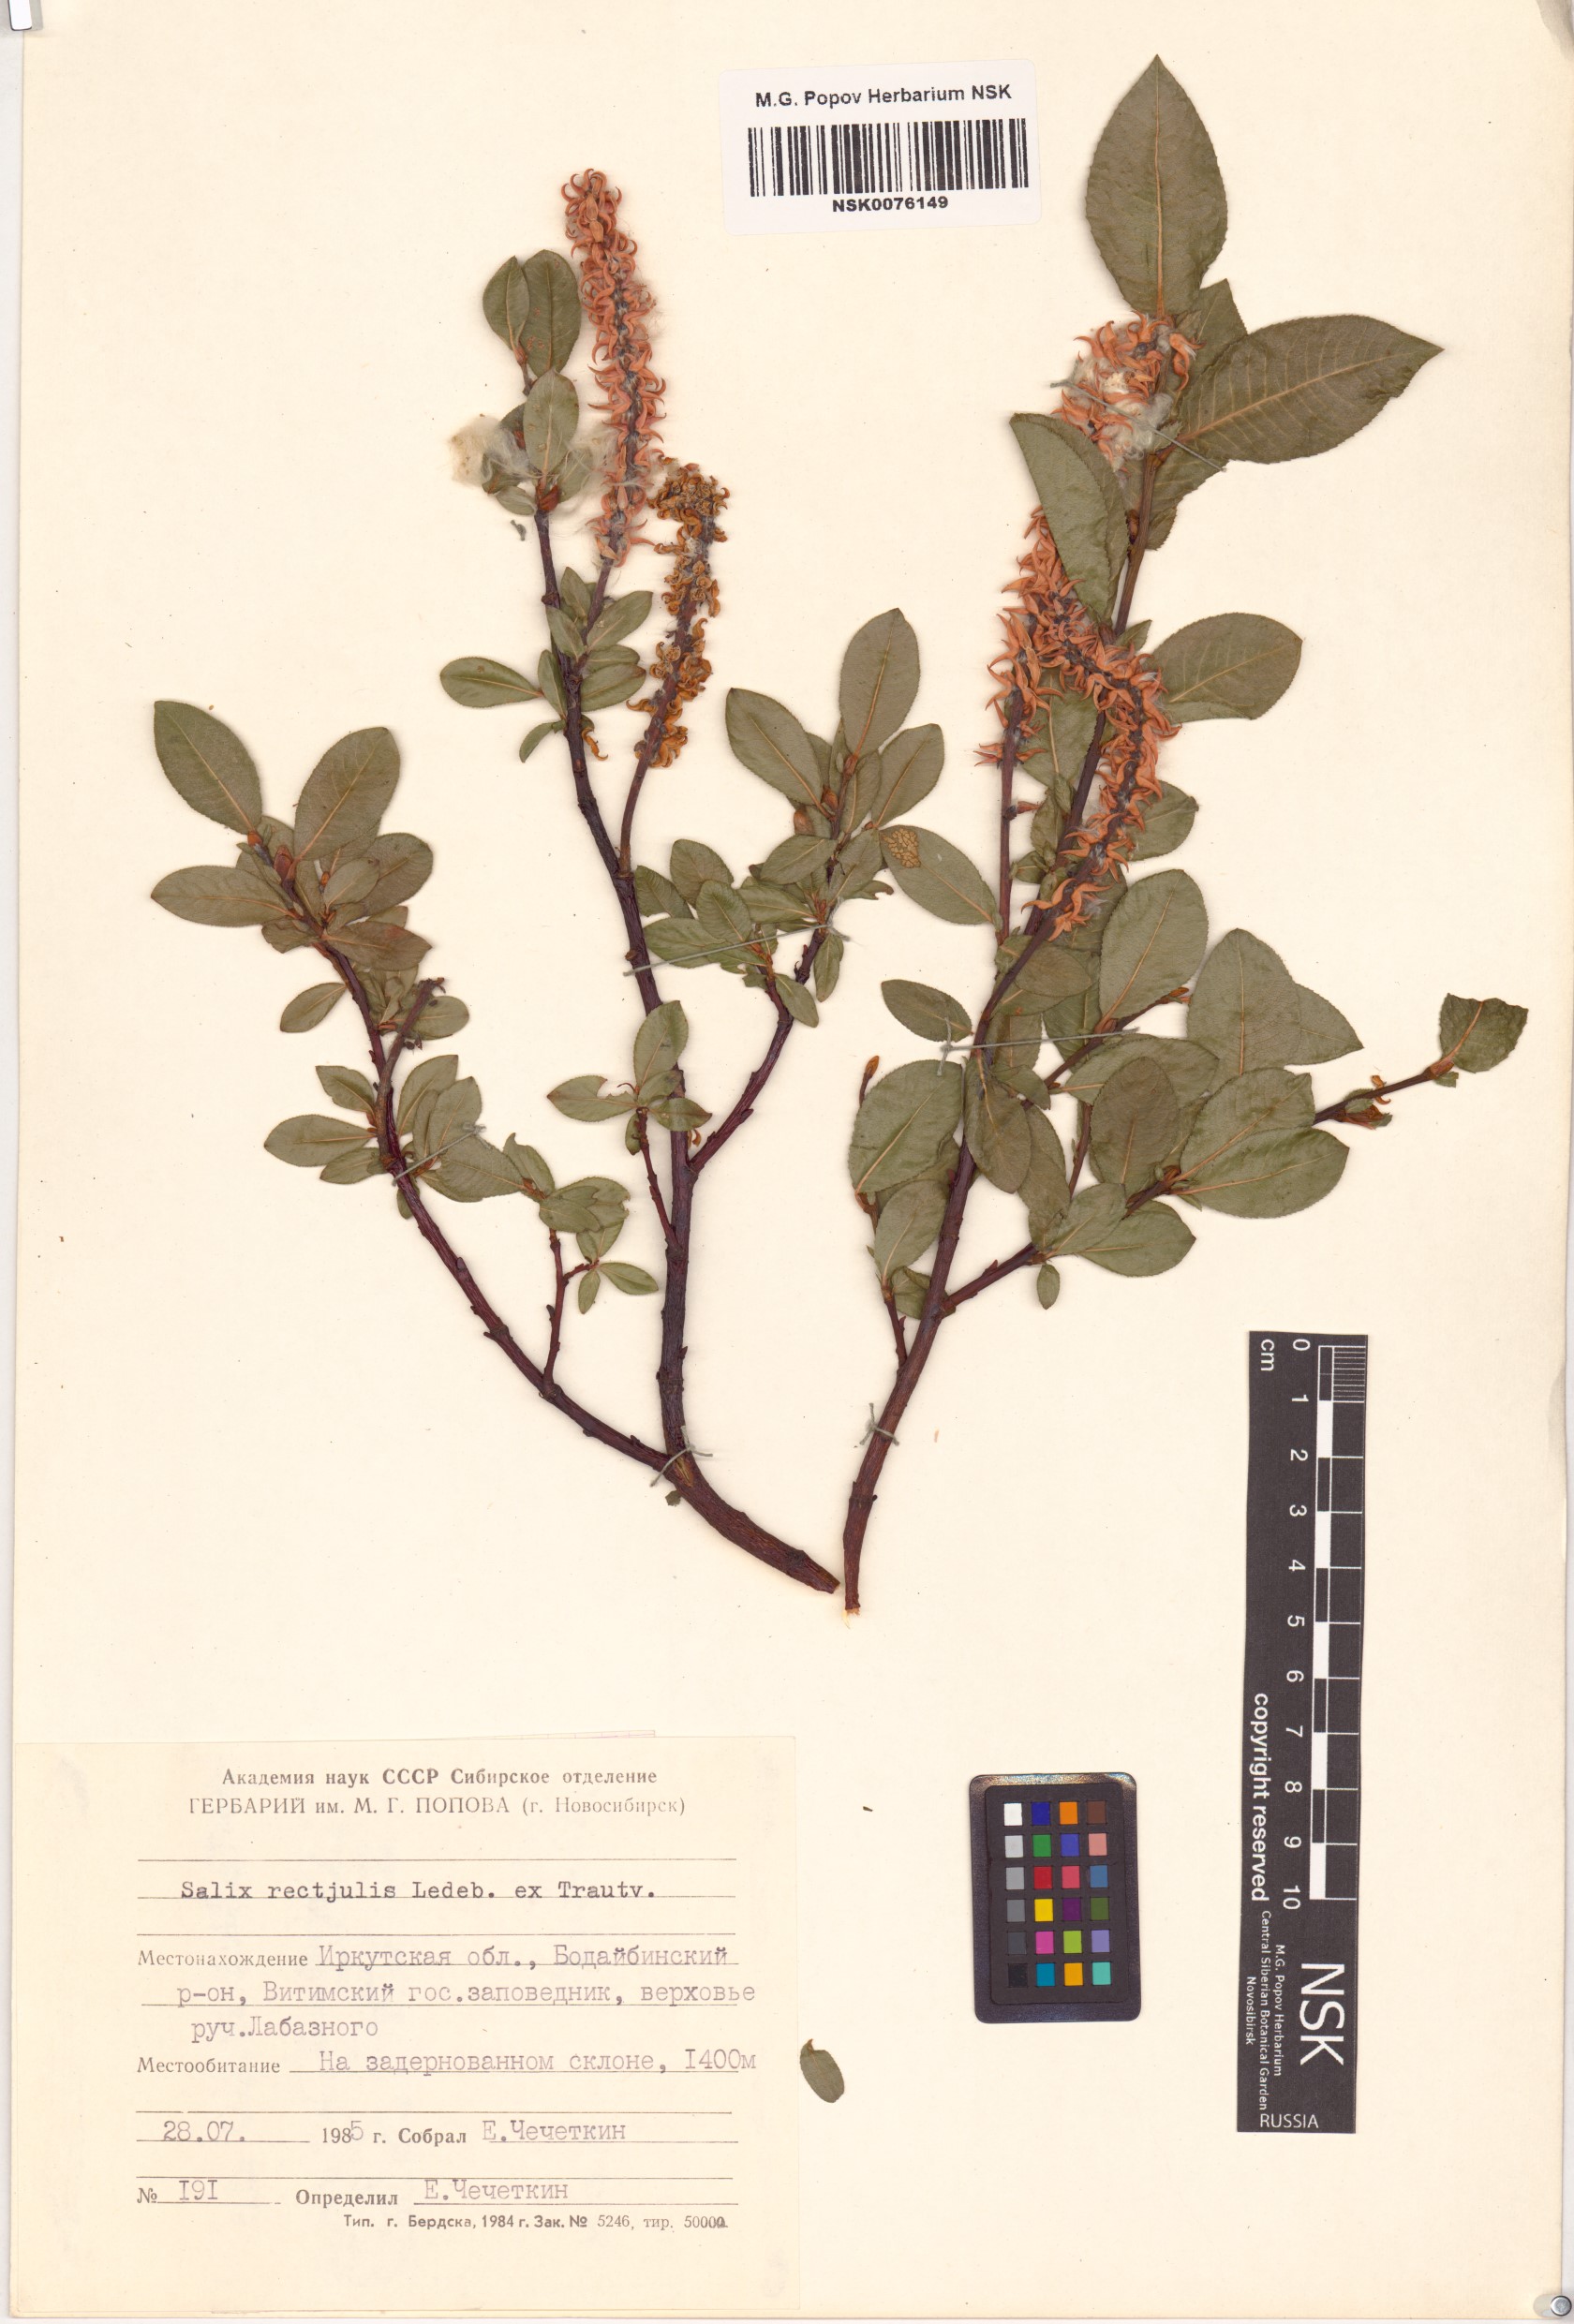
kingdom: Plantae
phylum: Tracheophyta
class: Magnoliopsida
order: Malpighiales
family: Salicaceae
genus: Salix
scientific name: Salix rectijulis
